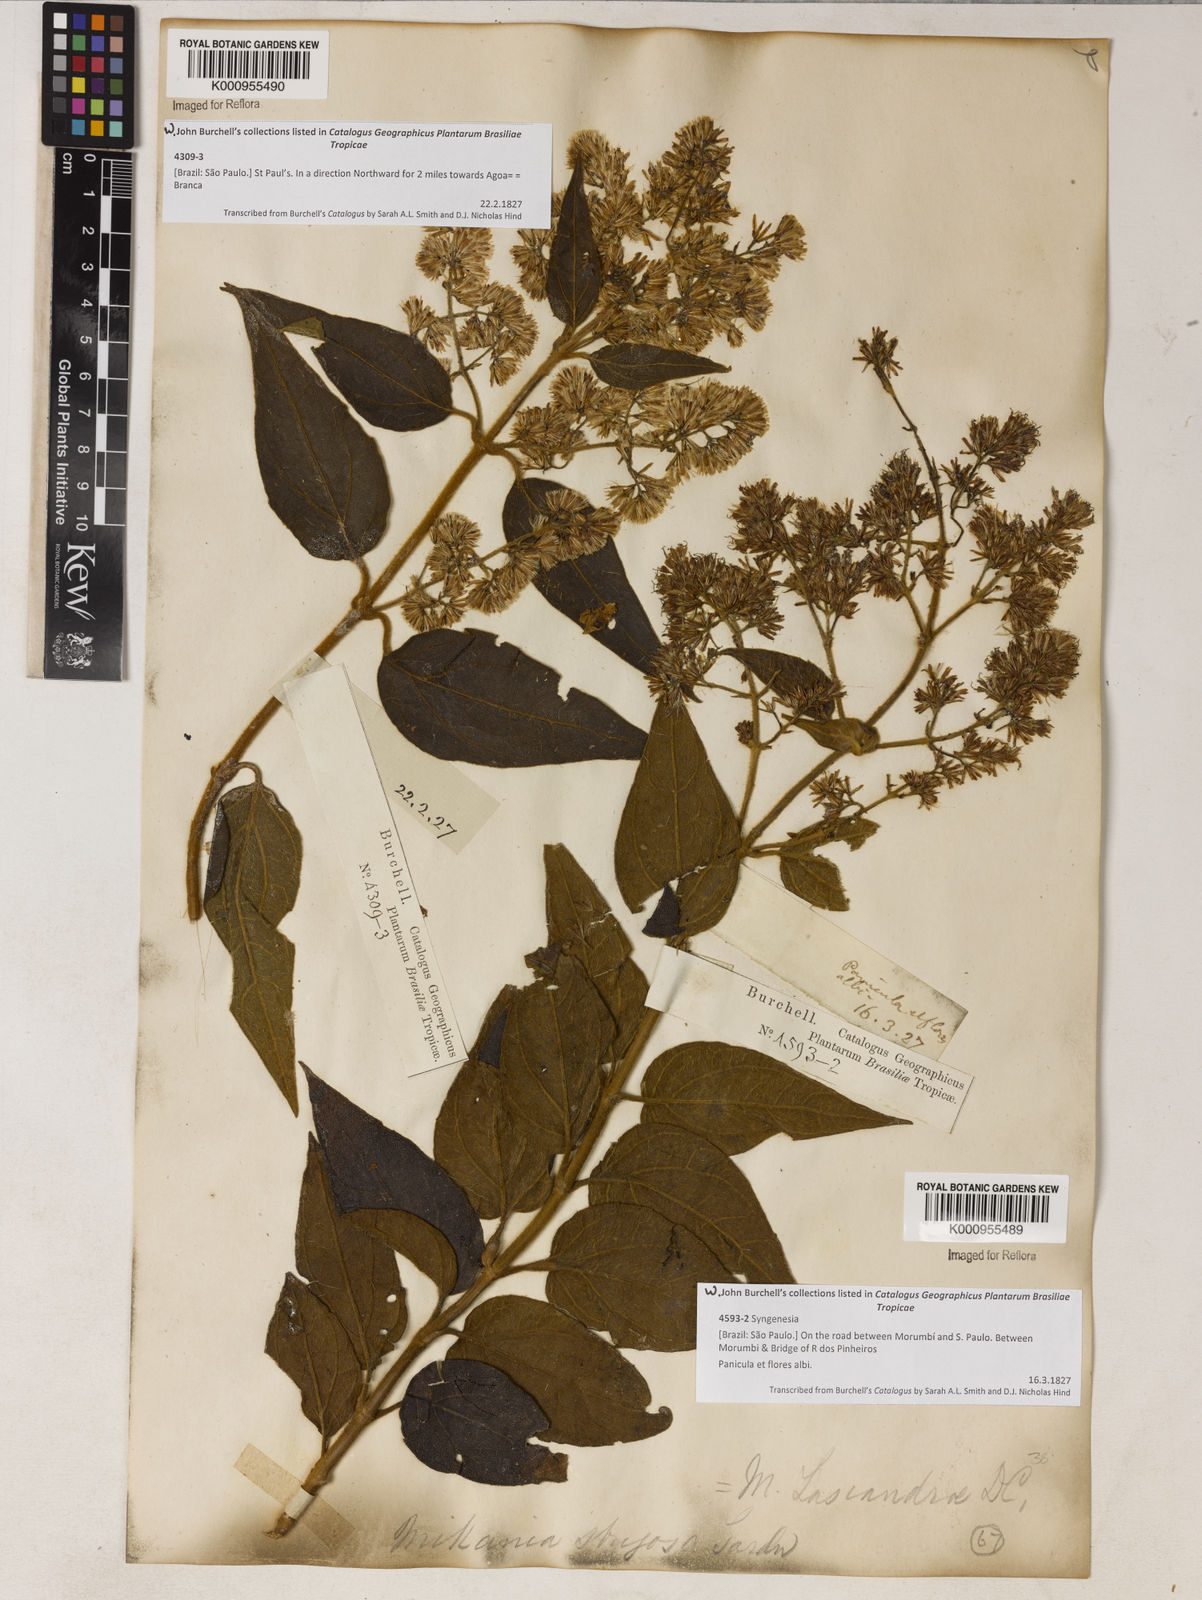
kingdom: Plantae
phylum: Tracheophyta
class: Magnoliopsida
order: Asterales
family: Asteraceae
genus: Mikania
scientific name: Mikania lasiandrae
